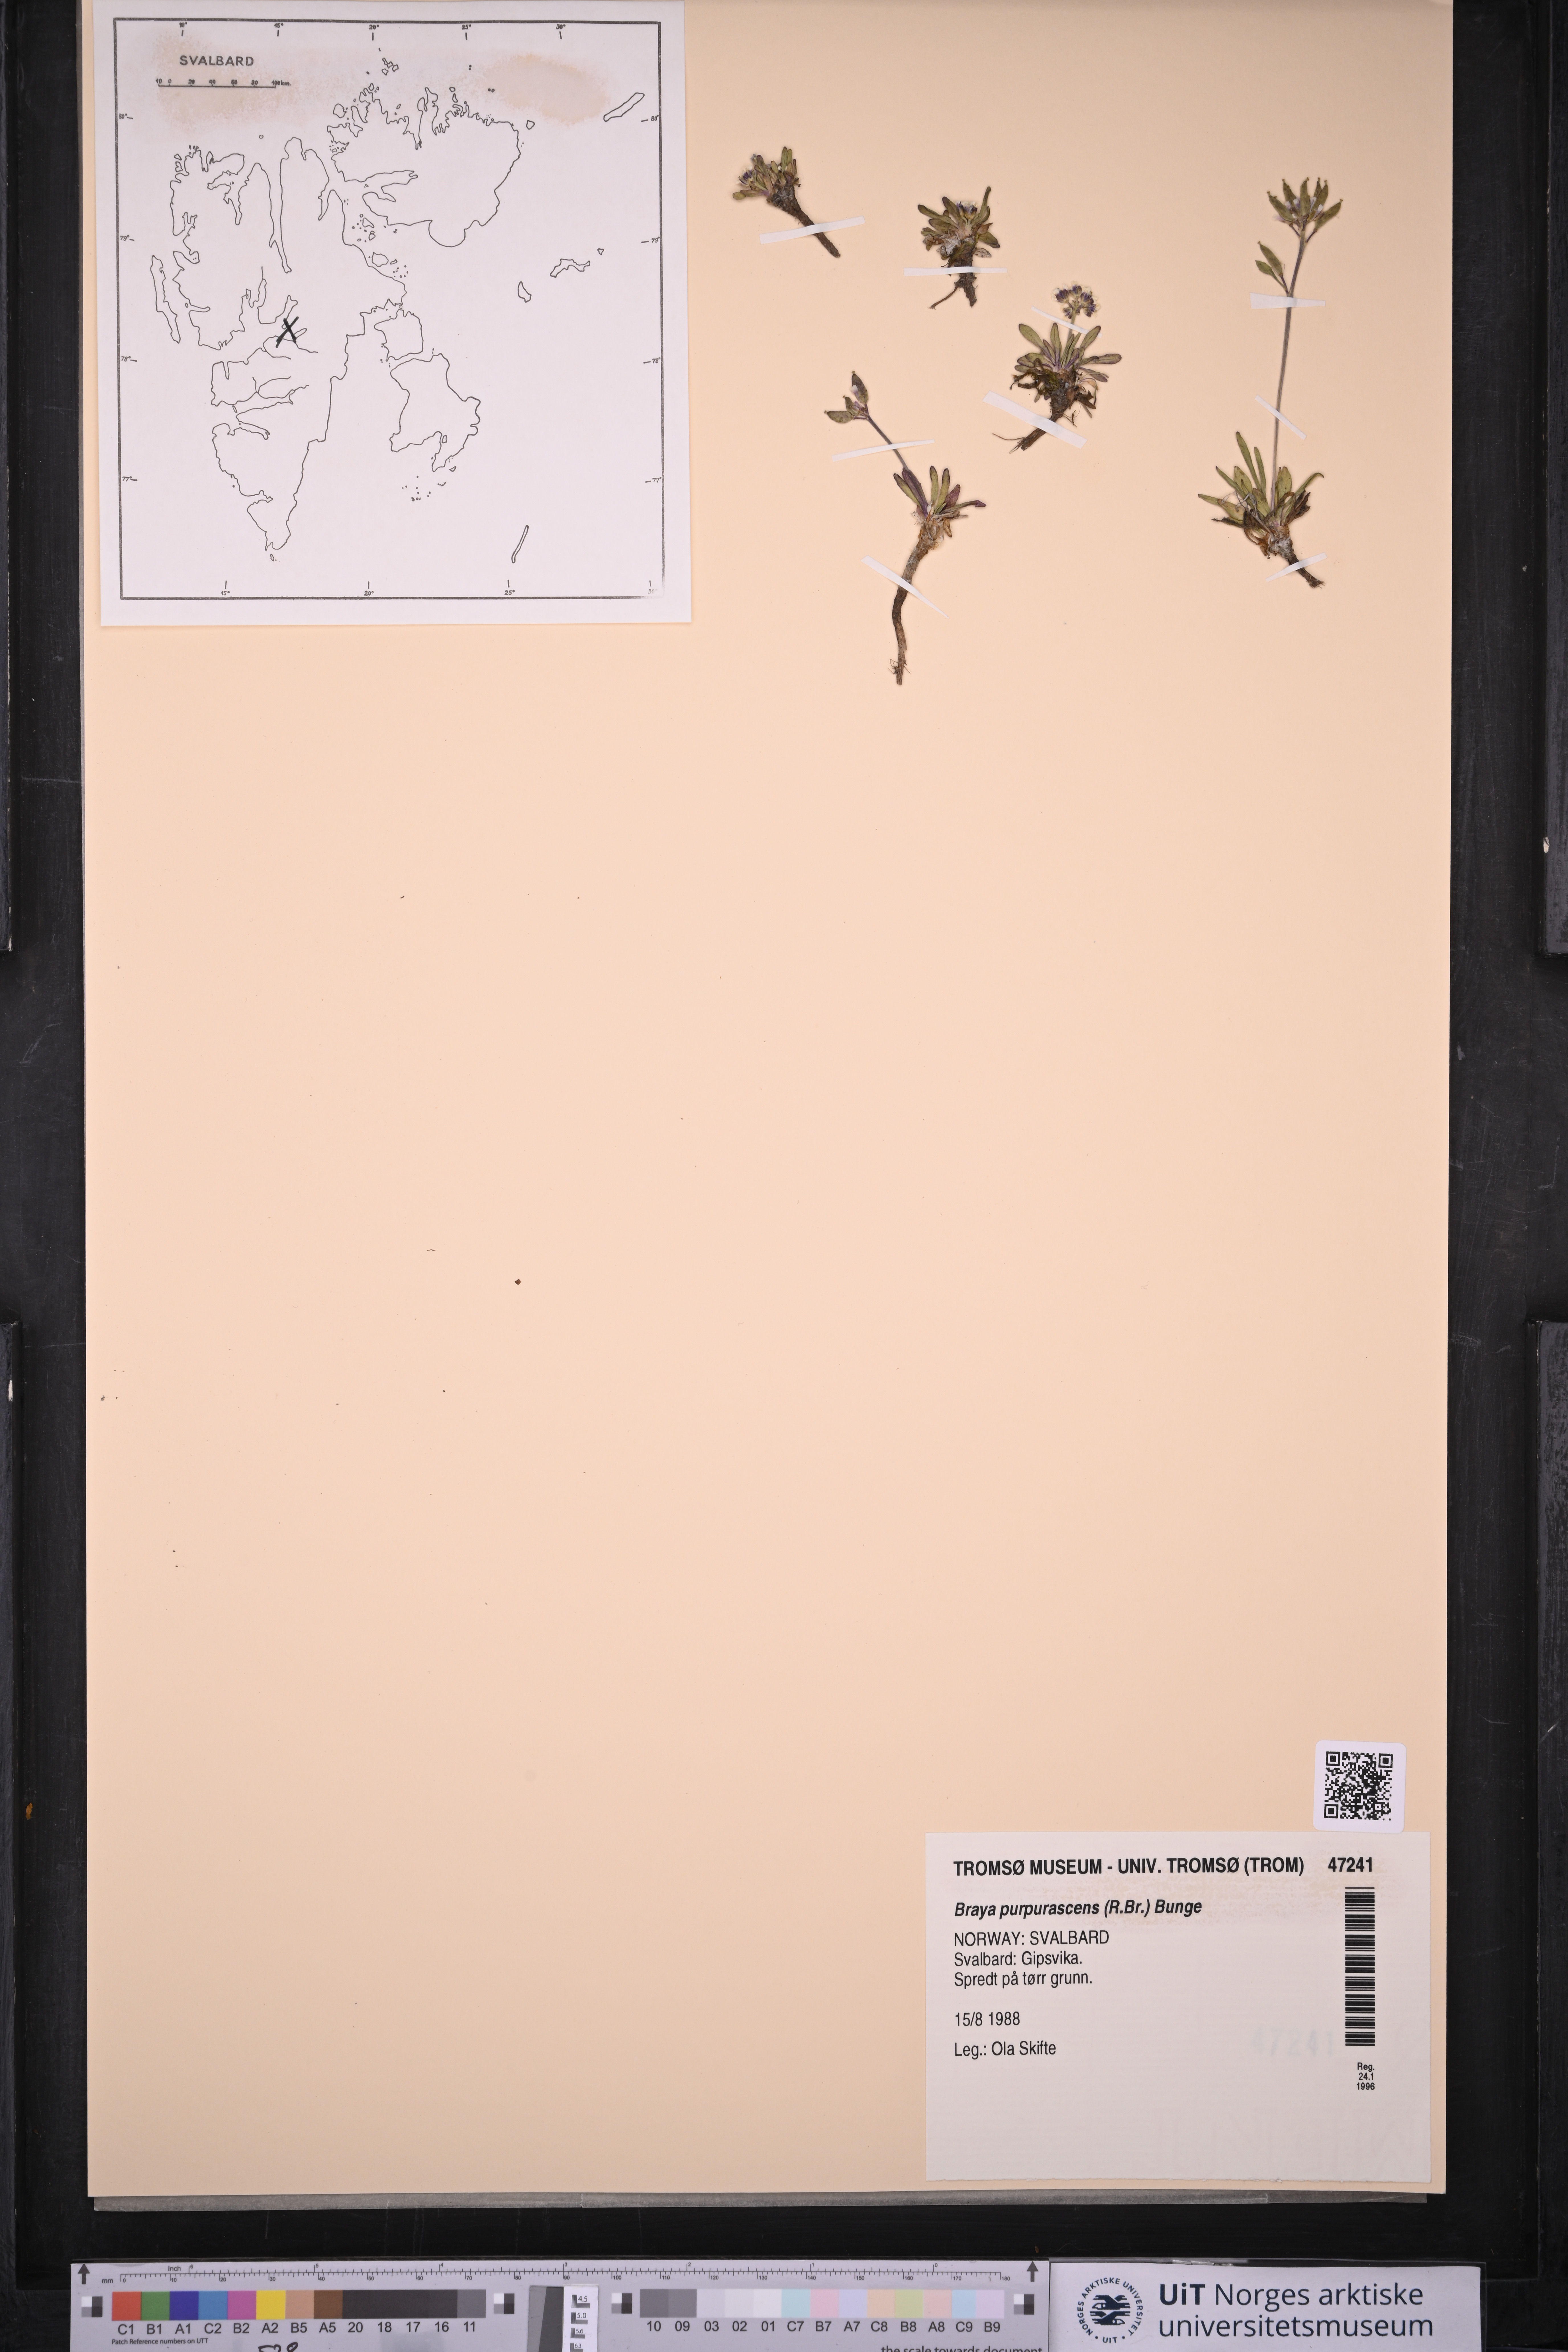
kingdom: Plantae
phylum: Tracheophyta
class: Magnoliopsida
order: Brassicales
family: Brassicaceae
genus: Braya
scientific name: Braya purpurascens
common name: Alpine braya
